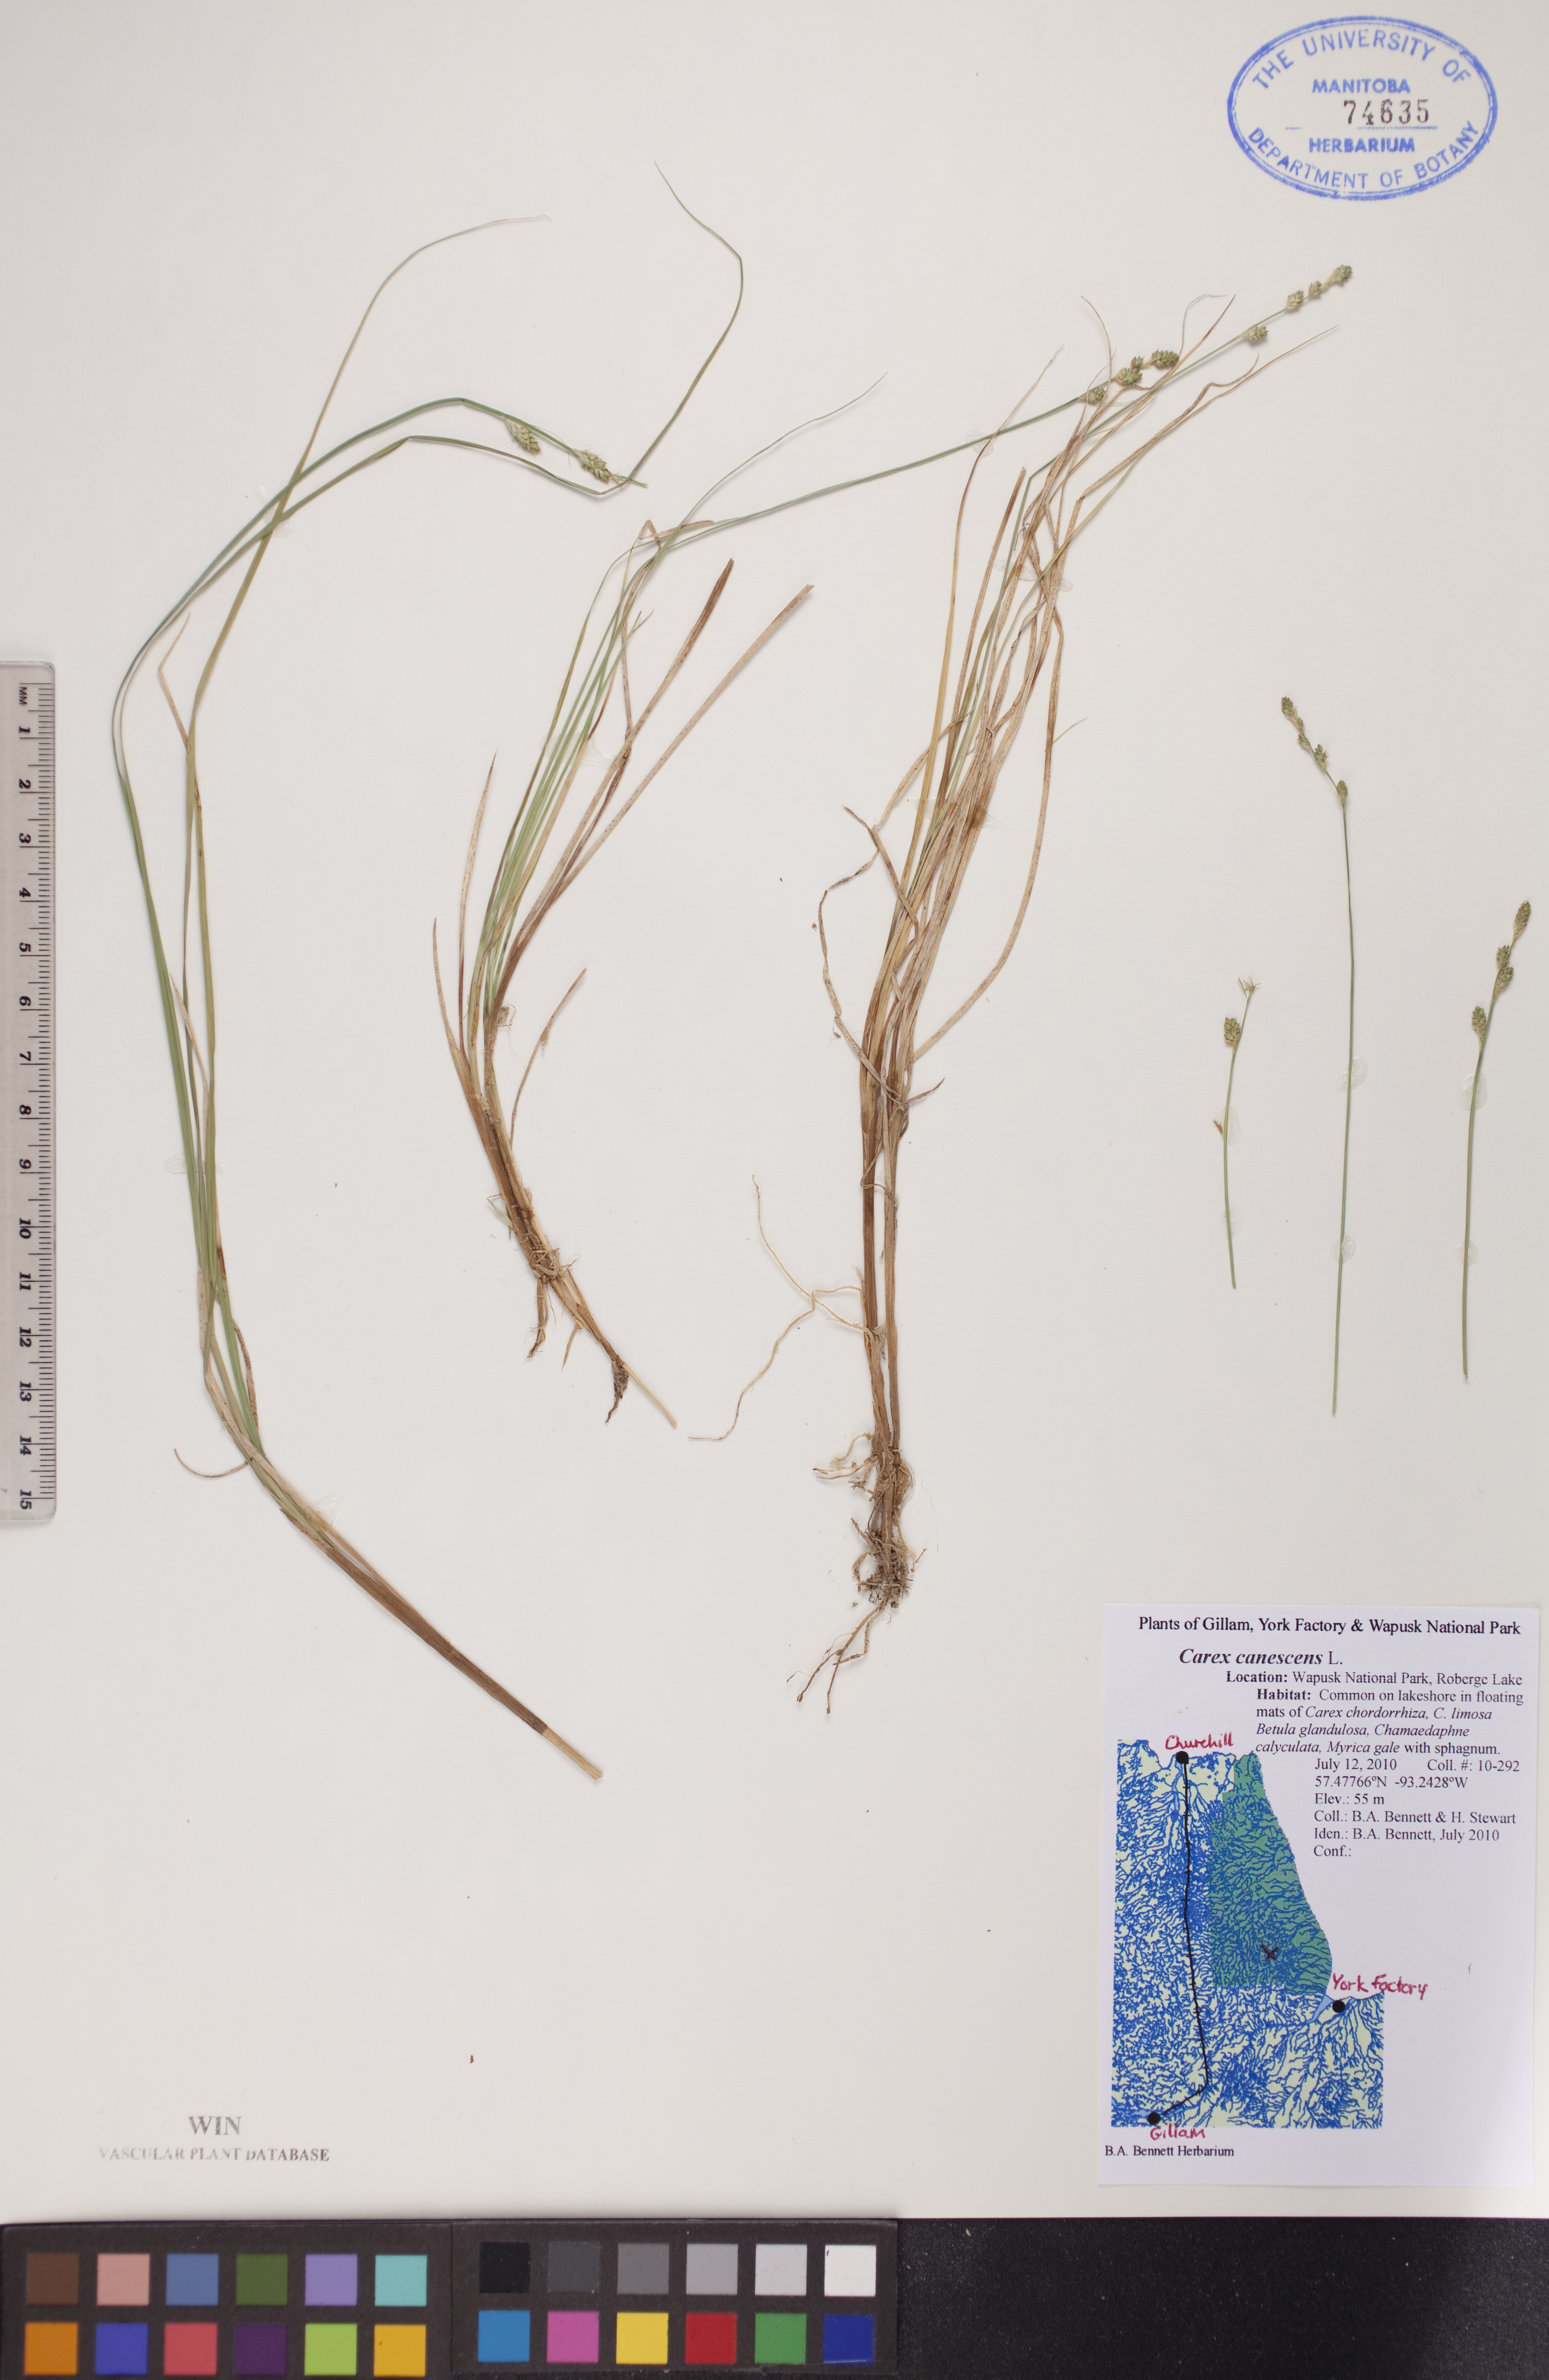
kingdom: Plantae
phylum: Tracheophyta
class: Liliopsida
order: Poales
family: Cyperaceae
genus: Carex
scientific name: Carex canescens
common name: White sedge
